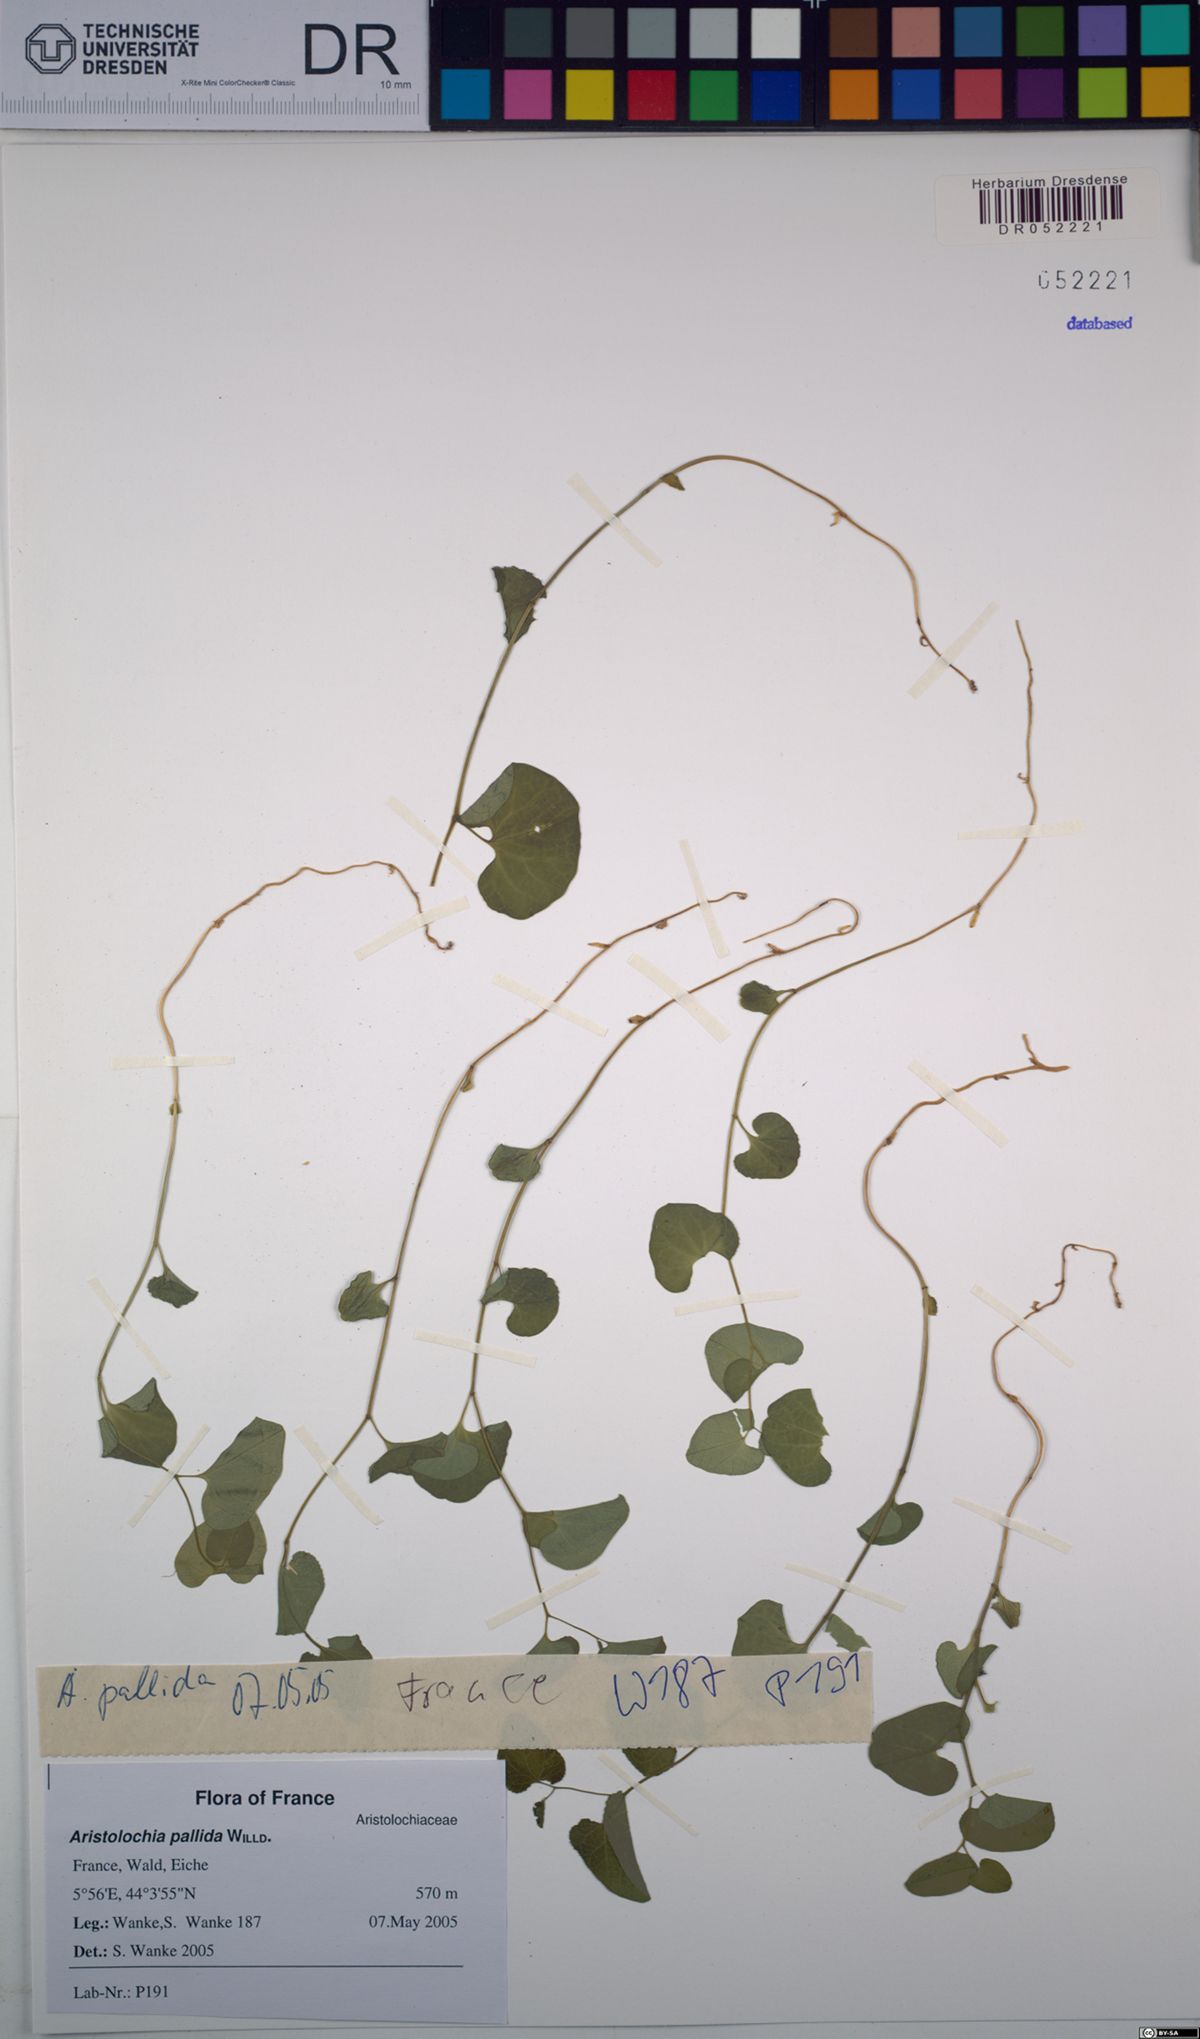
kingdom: Plantae
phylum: Tracheophyta
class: Magnoliopsida
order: Piperales
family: Aristolochiaceae
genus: Aristolochia
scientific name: Aristolochia pallida
